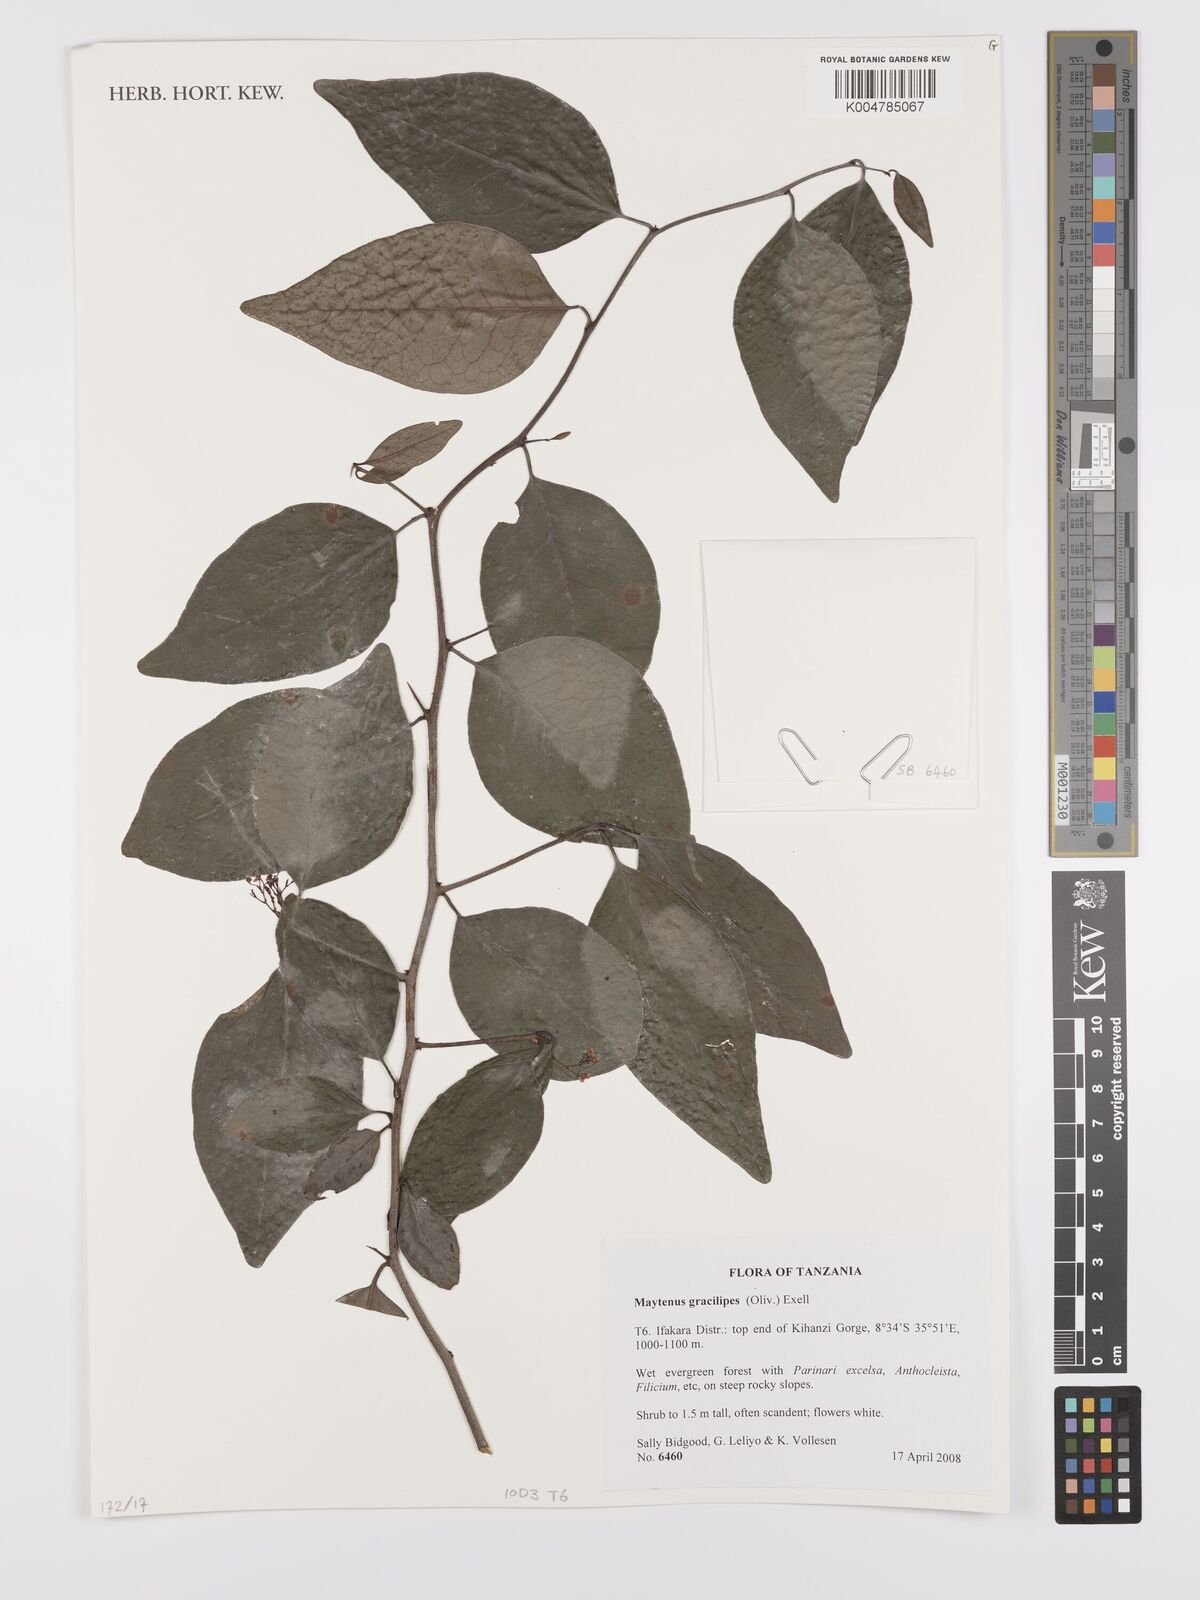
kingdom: Plantae
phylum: Tracheophyta
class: Magnoliopsida
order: Celastrales
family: Celastraceae
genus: Gymnosporia
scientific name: Gymnosporia gracilipes
